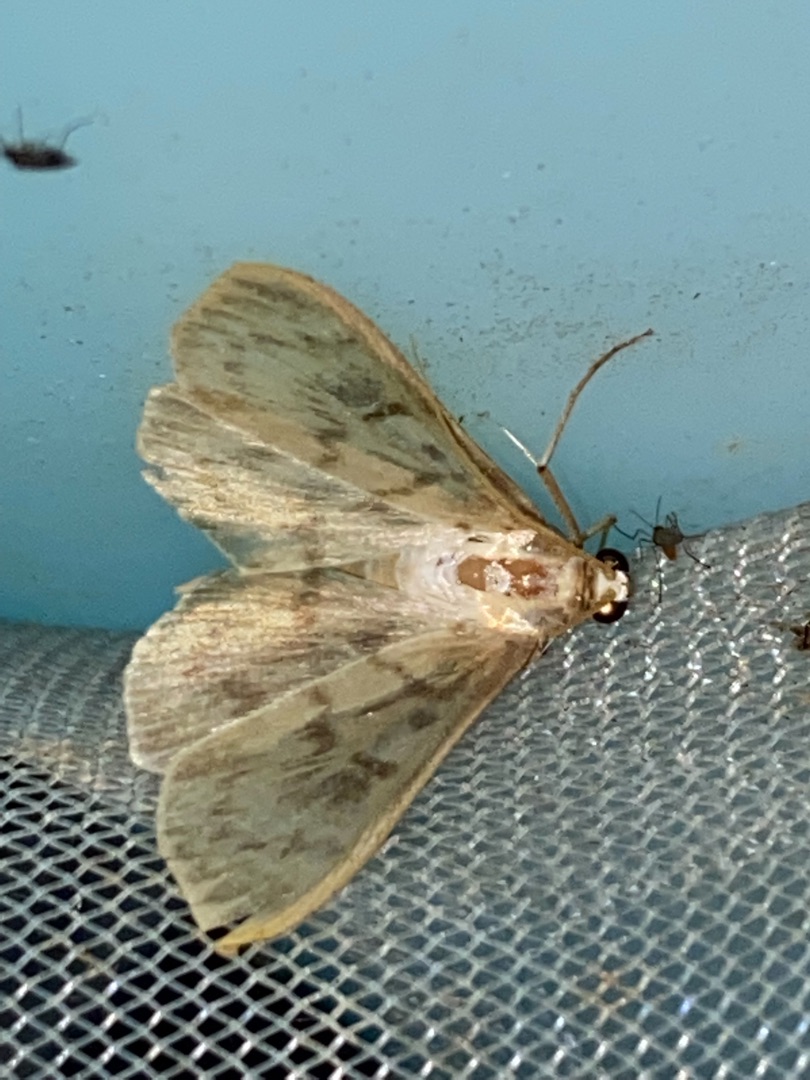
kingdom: Animalia
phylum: Arthropoda
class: Insecta
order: Lepidoptera
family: Crambidae
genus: Patania
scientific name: Patania ruralis
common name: Perlemorshalvmøl
